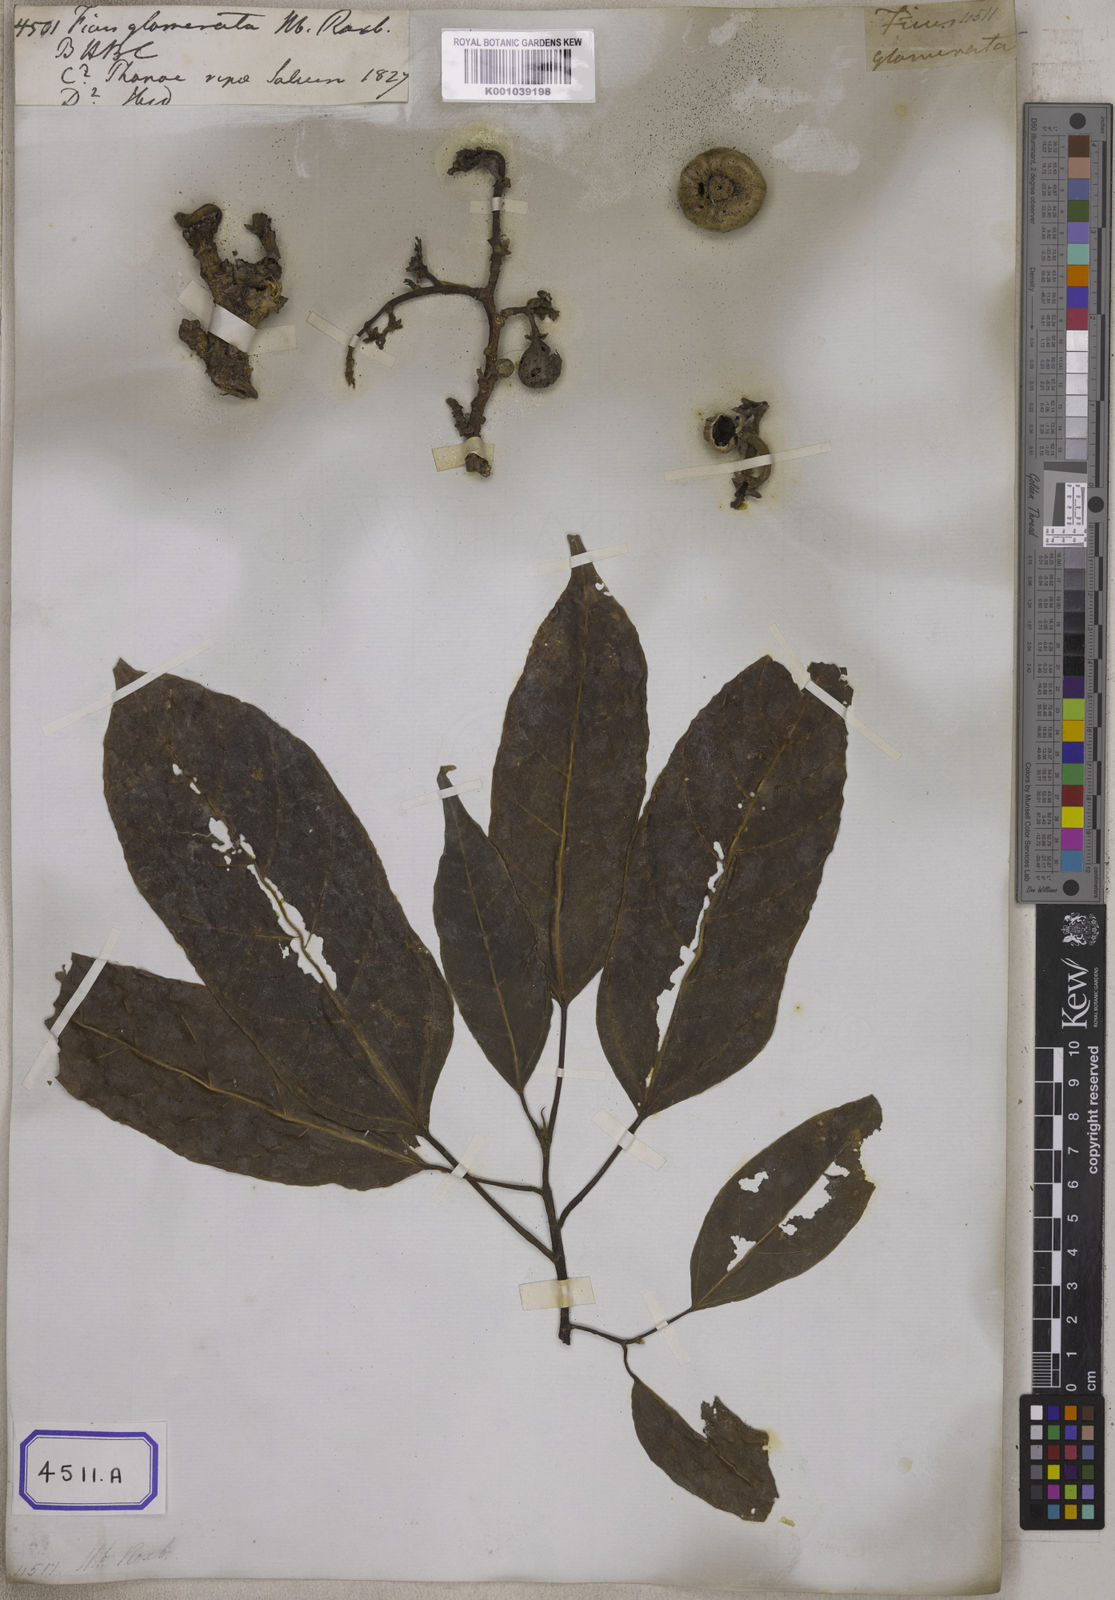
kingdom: Plantae
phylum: Tracheophyta
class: Magnoliopsida
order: Rosales
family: Moraceae
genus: Ficus
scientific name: Ficus racemosa
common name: Cluster fig
